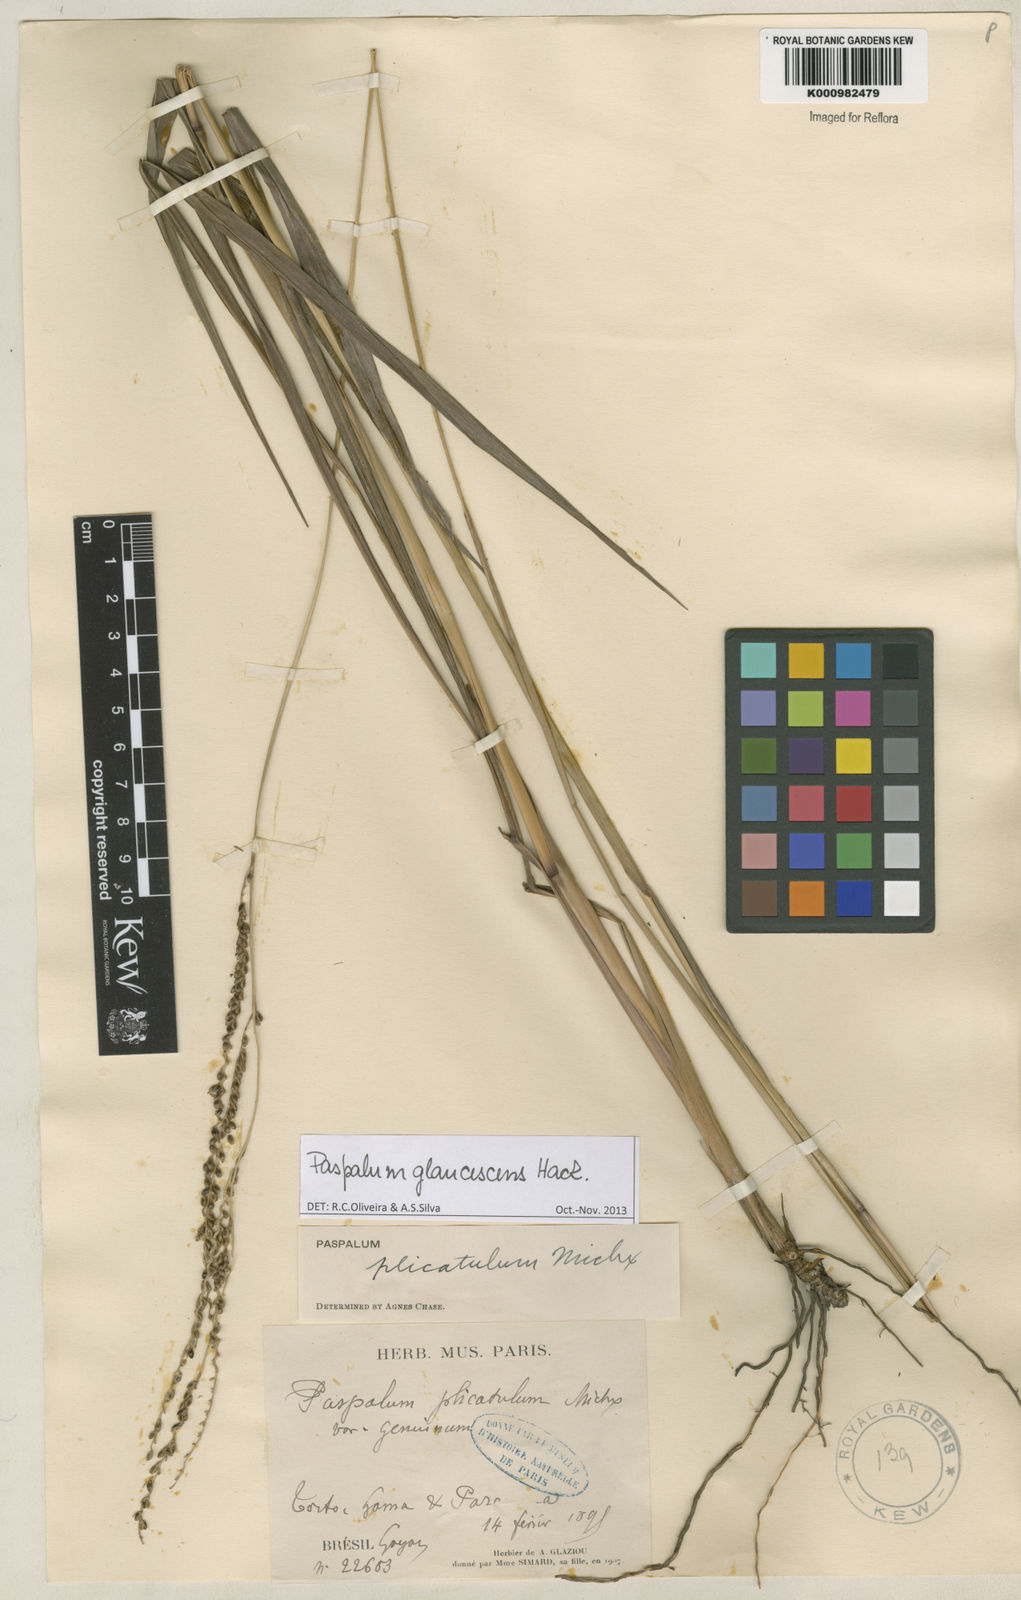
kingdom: Plantae
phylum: Tracheophyta
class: Liliopsida
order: Poales
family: Poaceae
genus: Paspalum
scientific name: Paspalum glaucescens
